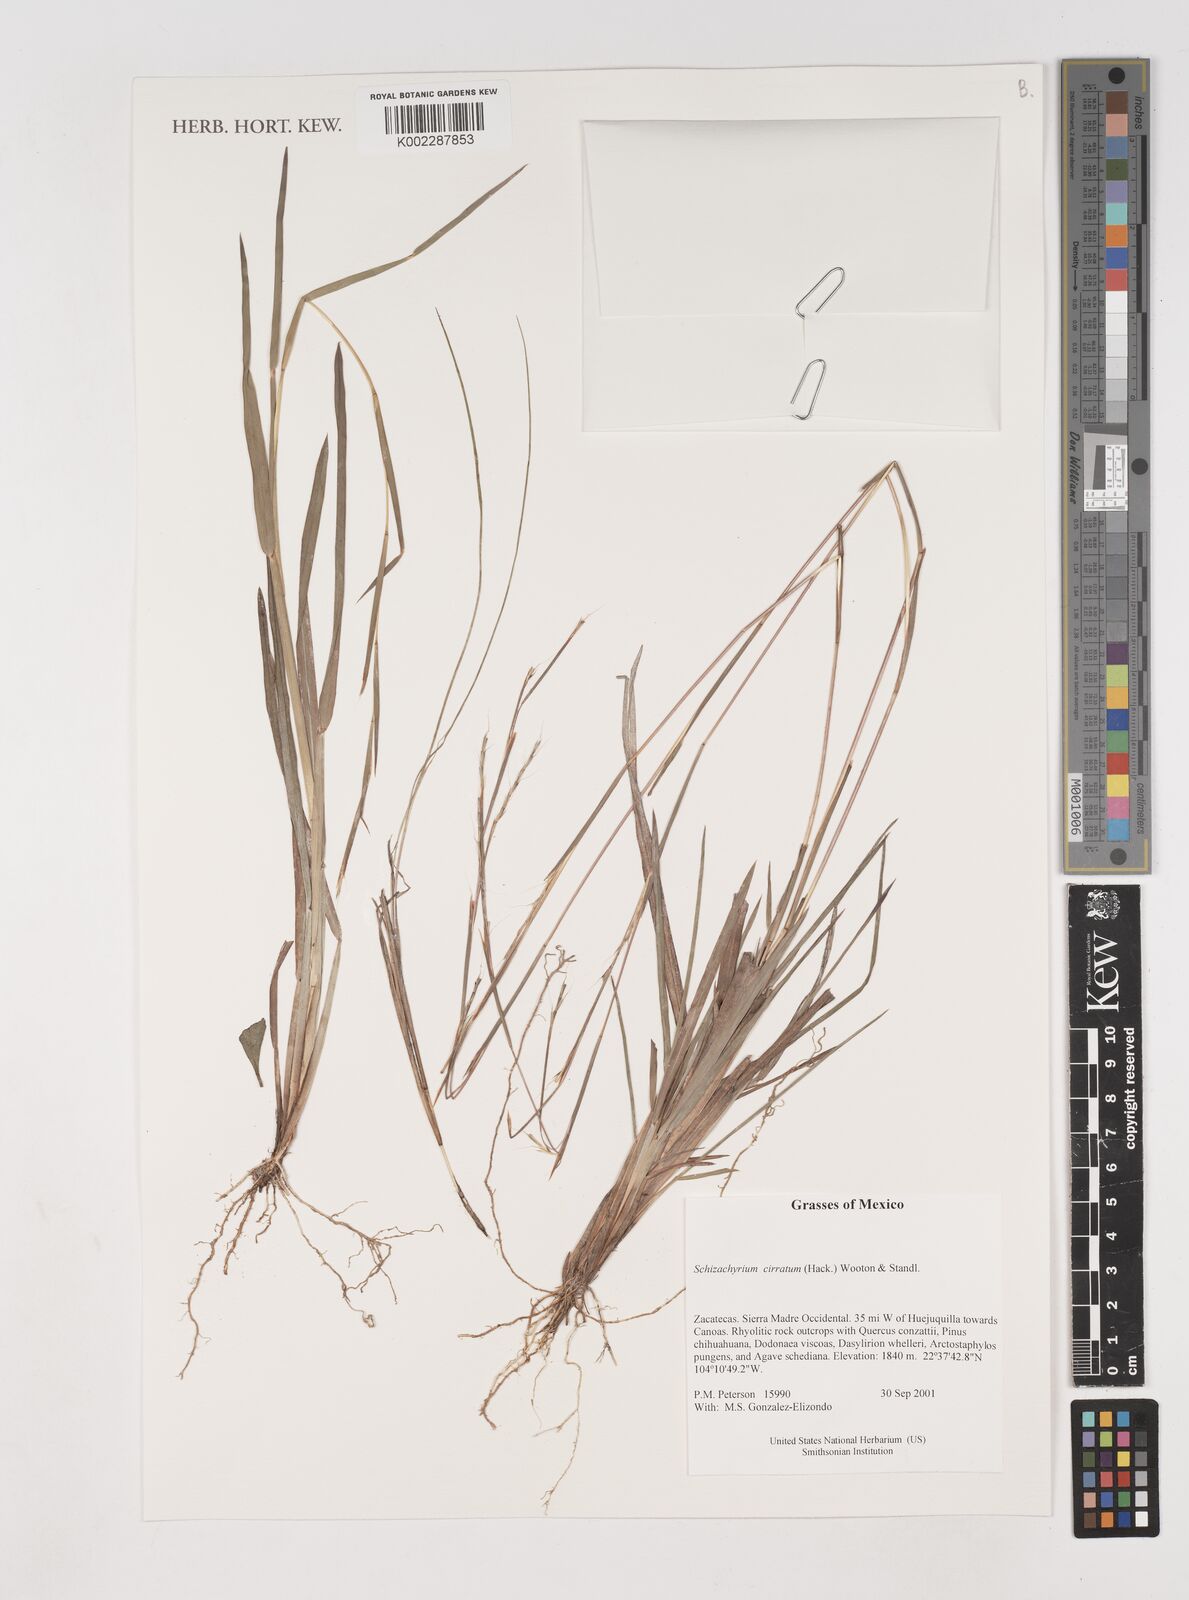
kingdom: Plantae
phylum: Tracheophyta
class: Liliopsida
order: Poales
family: Poaceae
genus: Andropogon
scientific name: Andropogon cirratus
